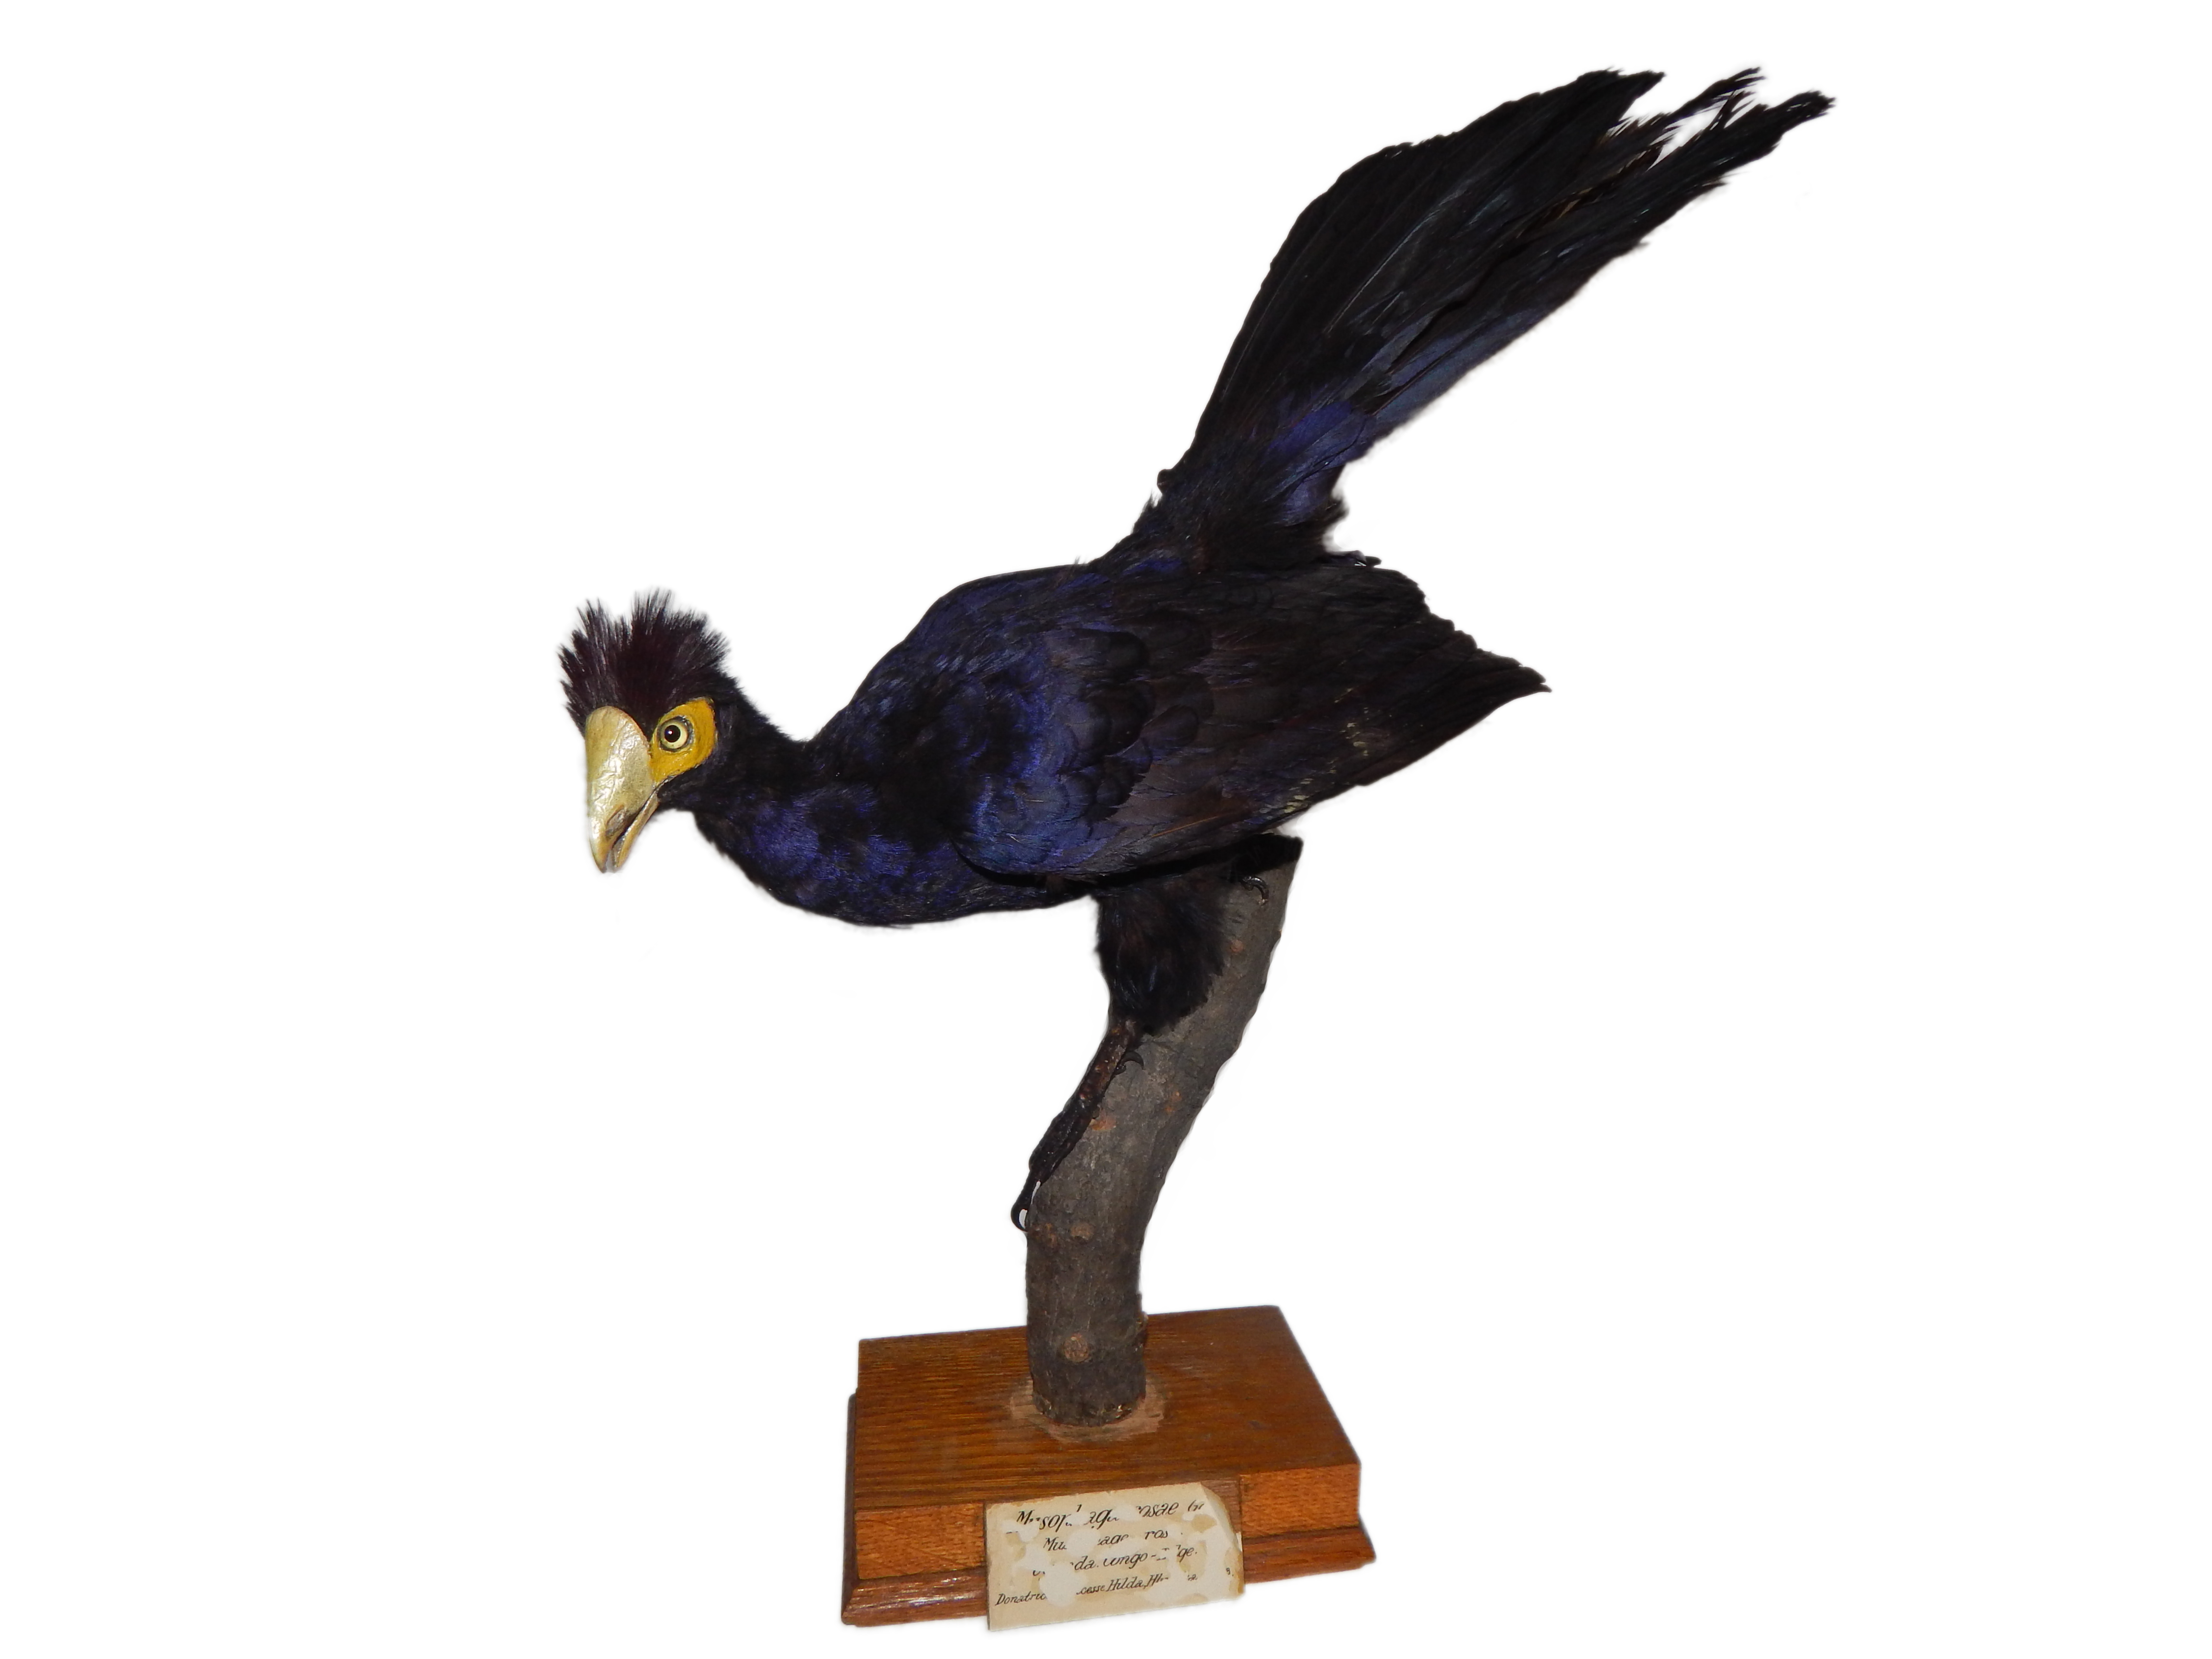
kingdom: Animalia
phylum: Chordata
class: Aves
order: Musophagiformes
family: Musophagidae
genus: Musophaga
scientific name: Musophaga rossae
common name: Ross's turaco
